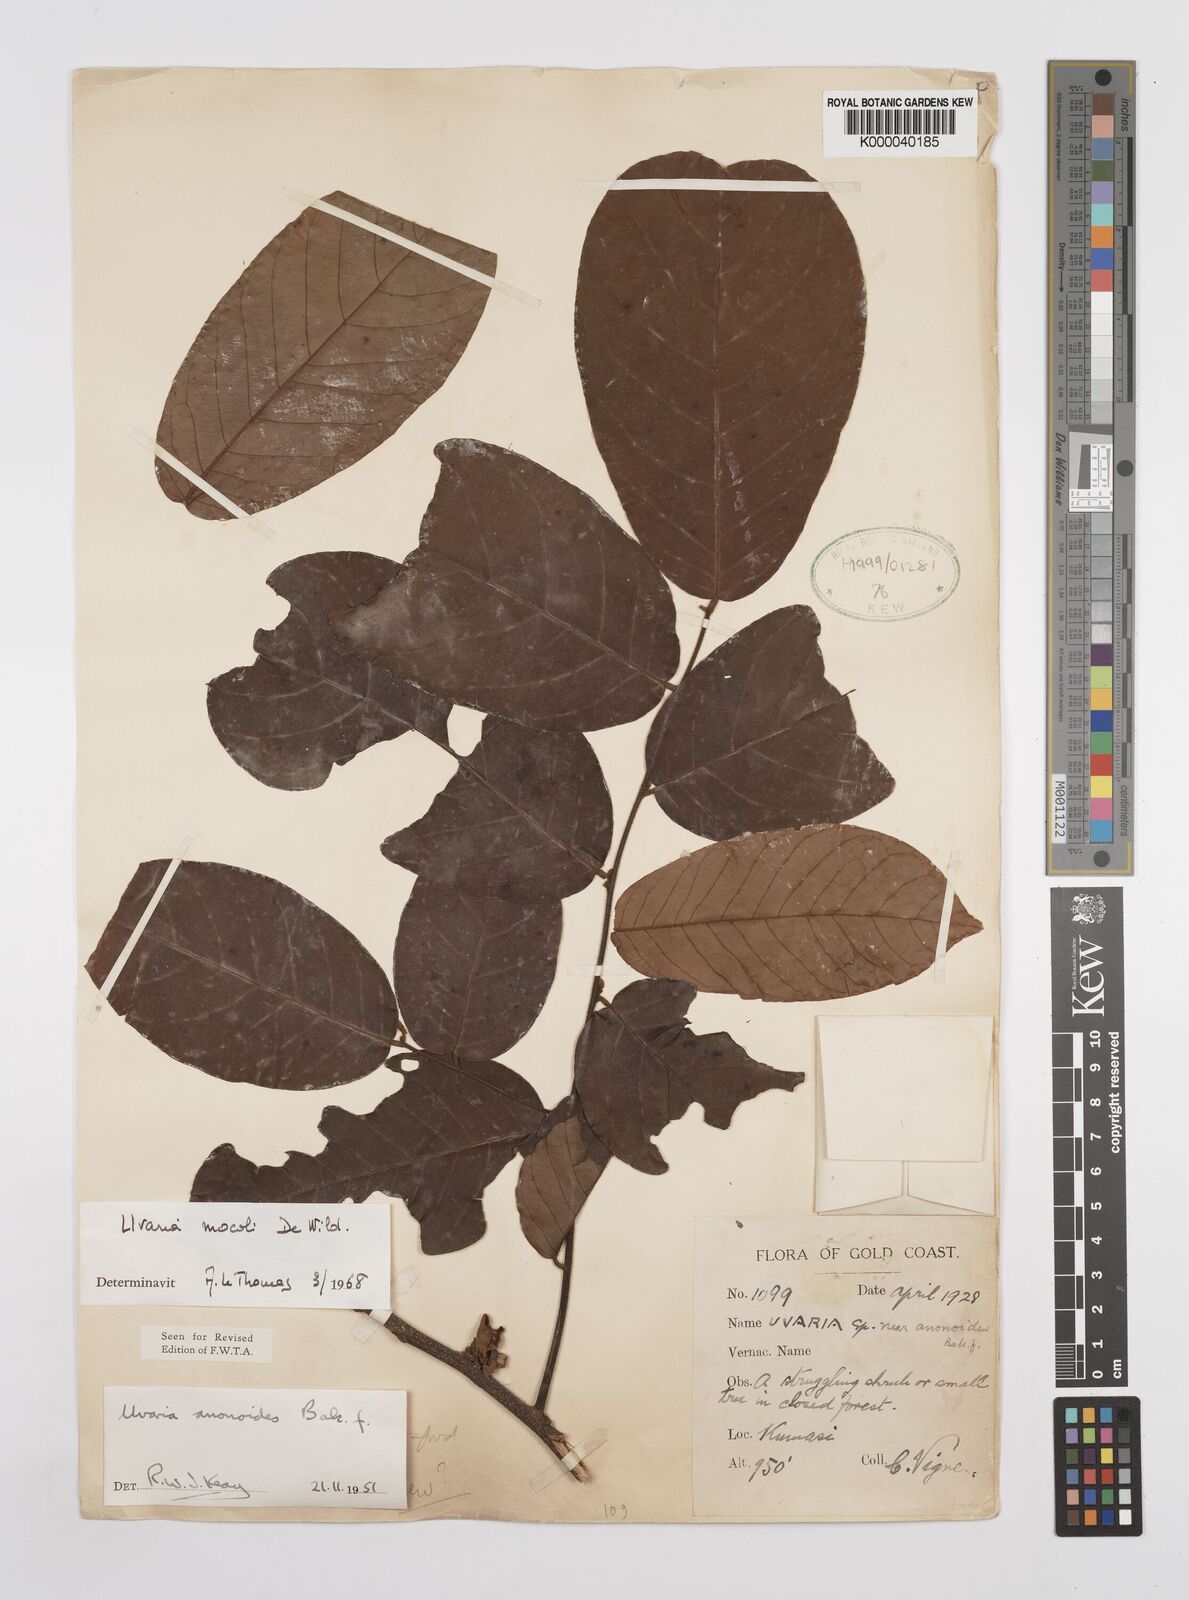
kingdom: Plantae
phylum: Tracheophyta
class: Magnoliopsida
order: Magnoliales
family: Annonaceae
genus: Uvaria
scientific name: Uvaria mocoli
